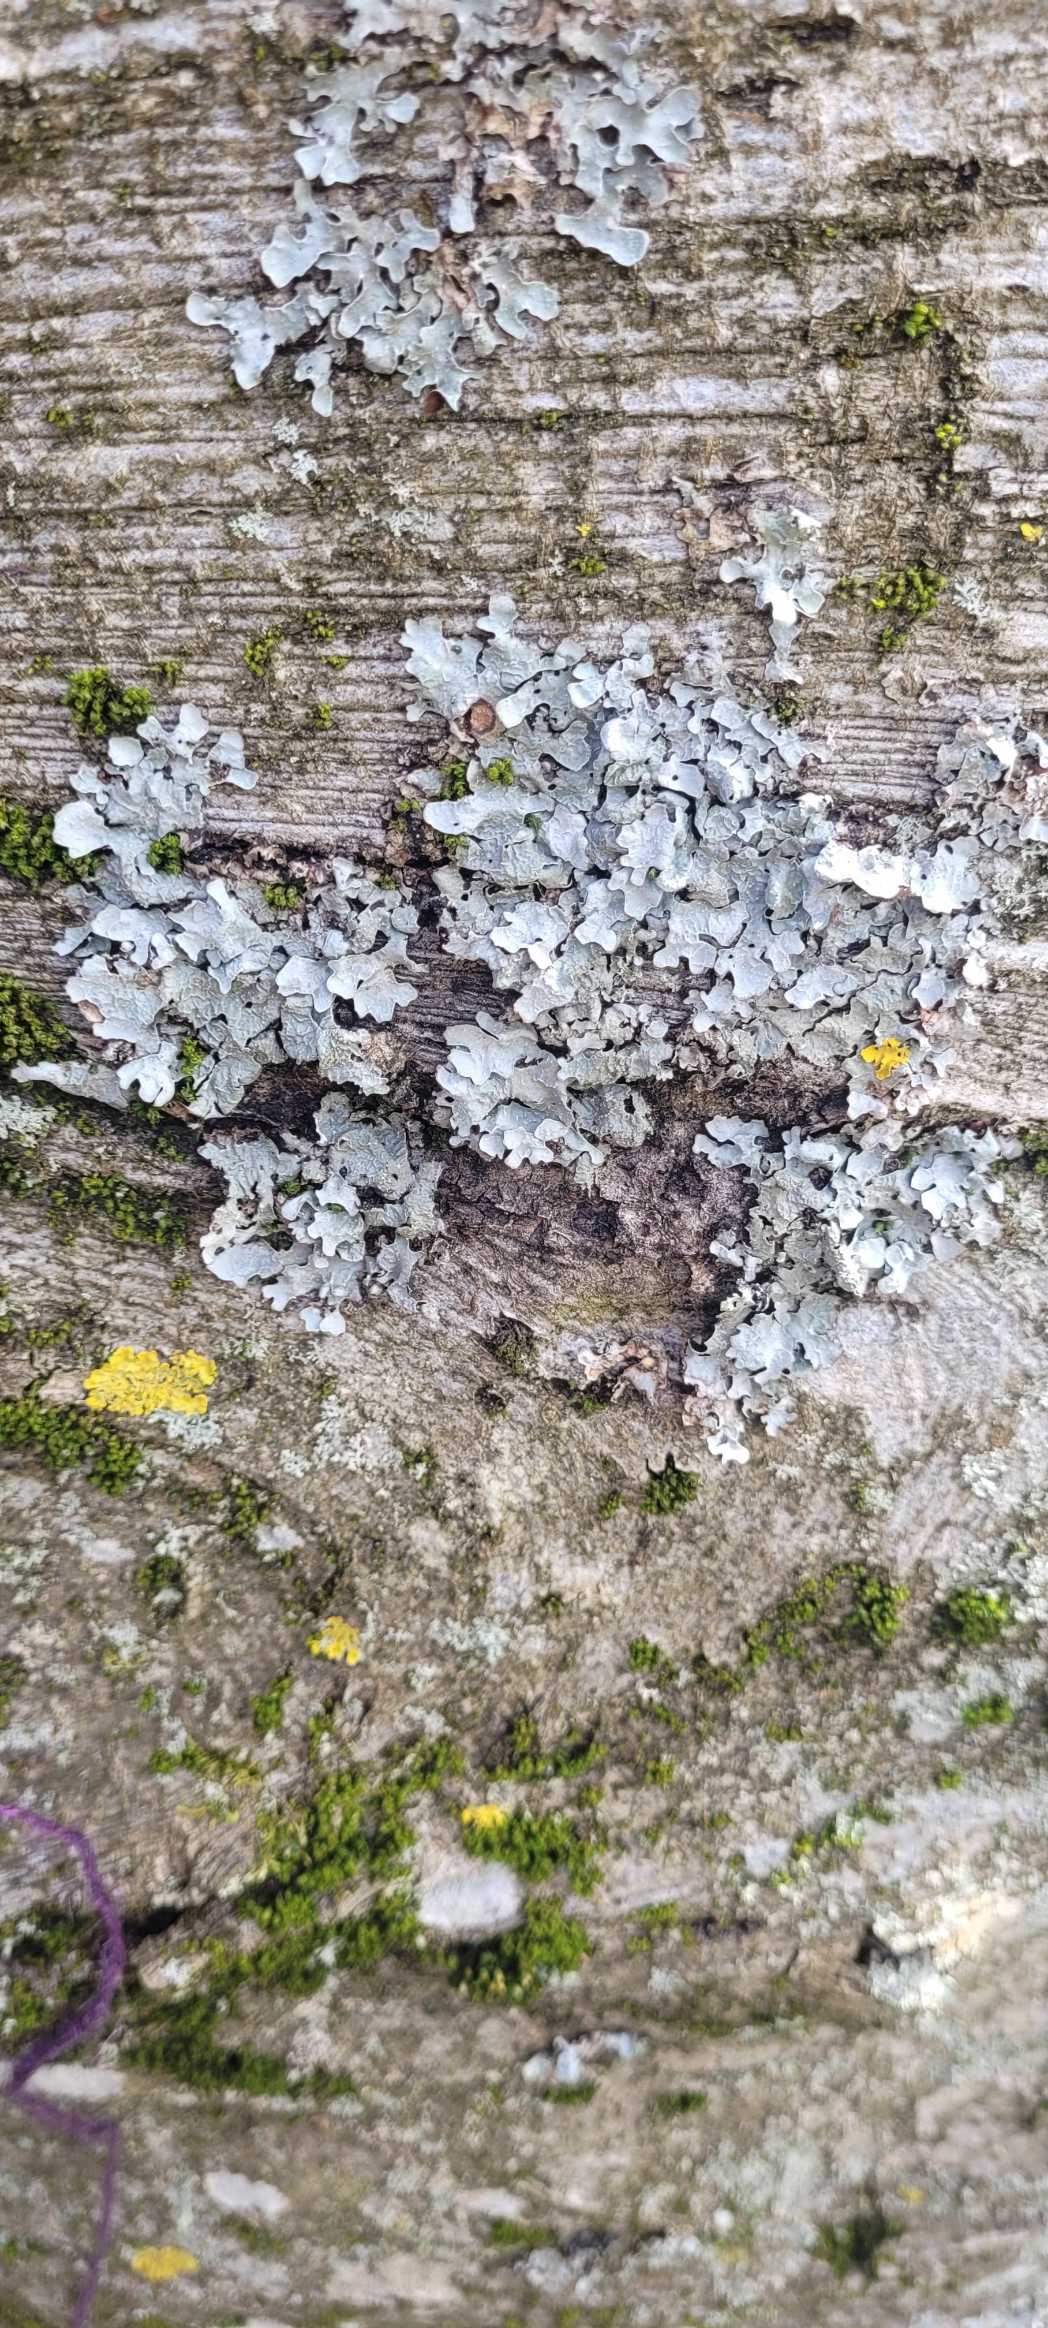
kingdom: Fungi
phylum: Ascomycota
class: Lecanoromycetes
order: Lecanorales
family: Parmeliaceae
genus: Parmelia
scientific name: Parmelia sulcata
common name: Rynket skållav
